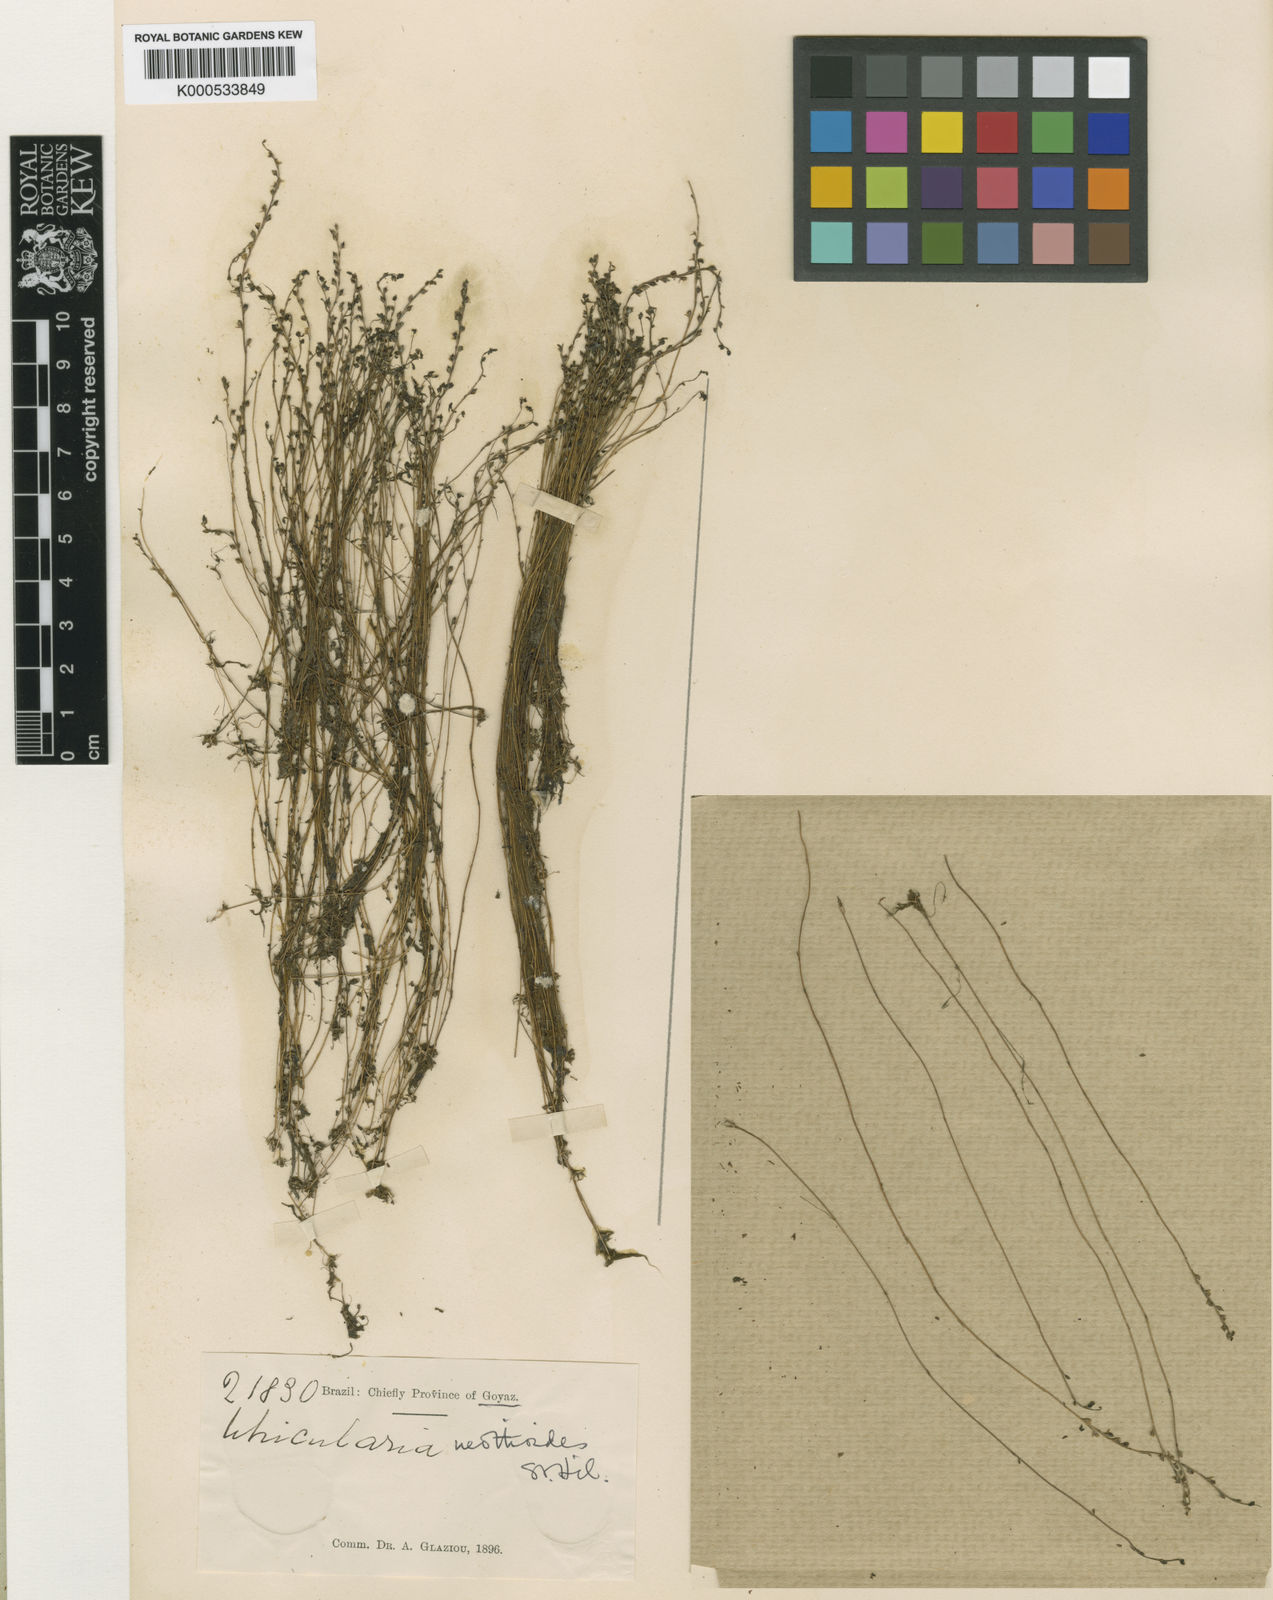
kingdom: Plantae
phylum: Tracheophyta
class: Magnoliopsida
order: Lamiales
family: Lentibulariaceae
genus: Utricularia
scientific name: Utricularia neottioides
